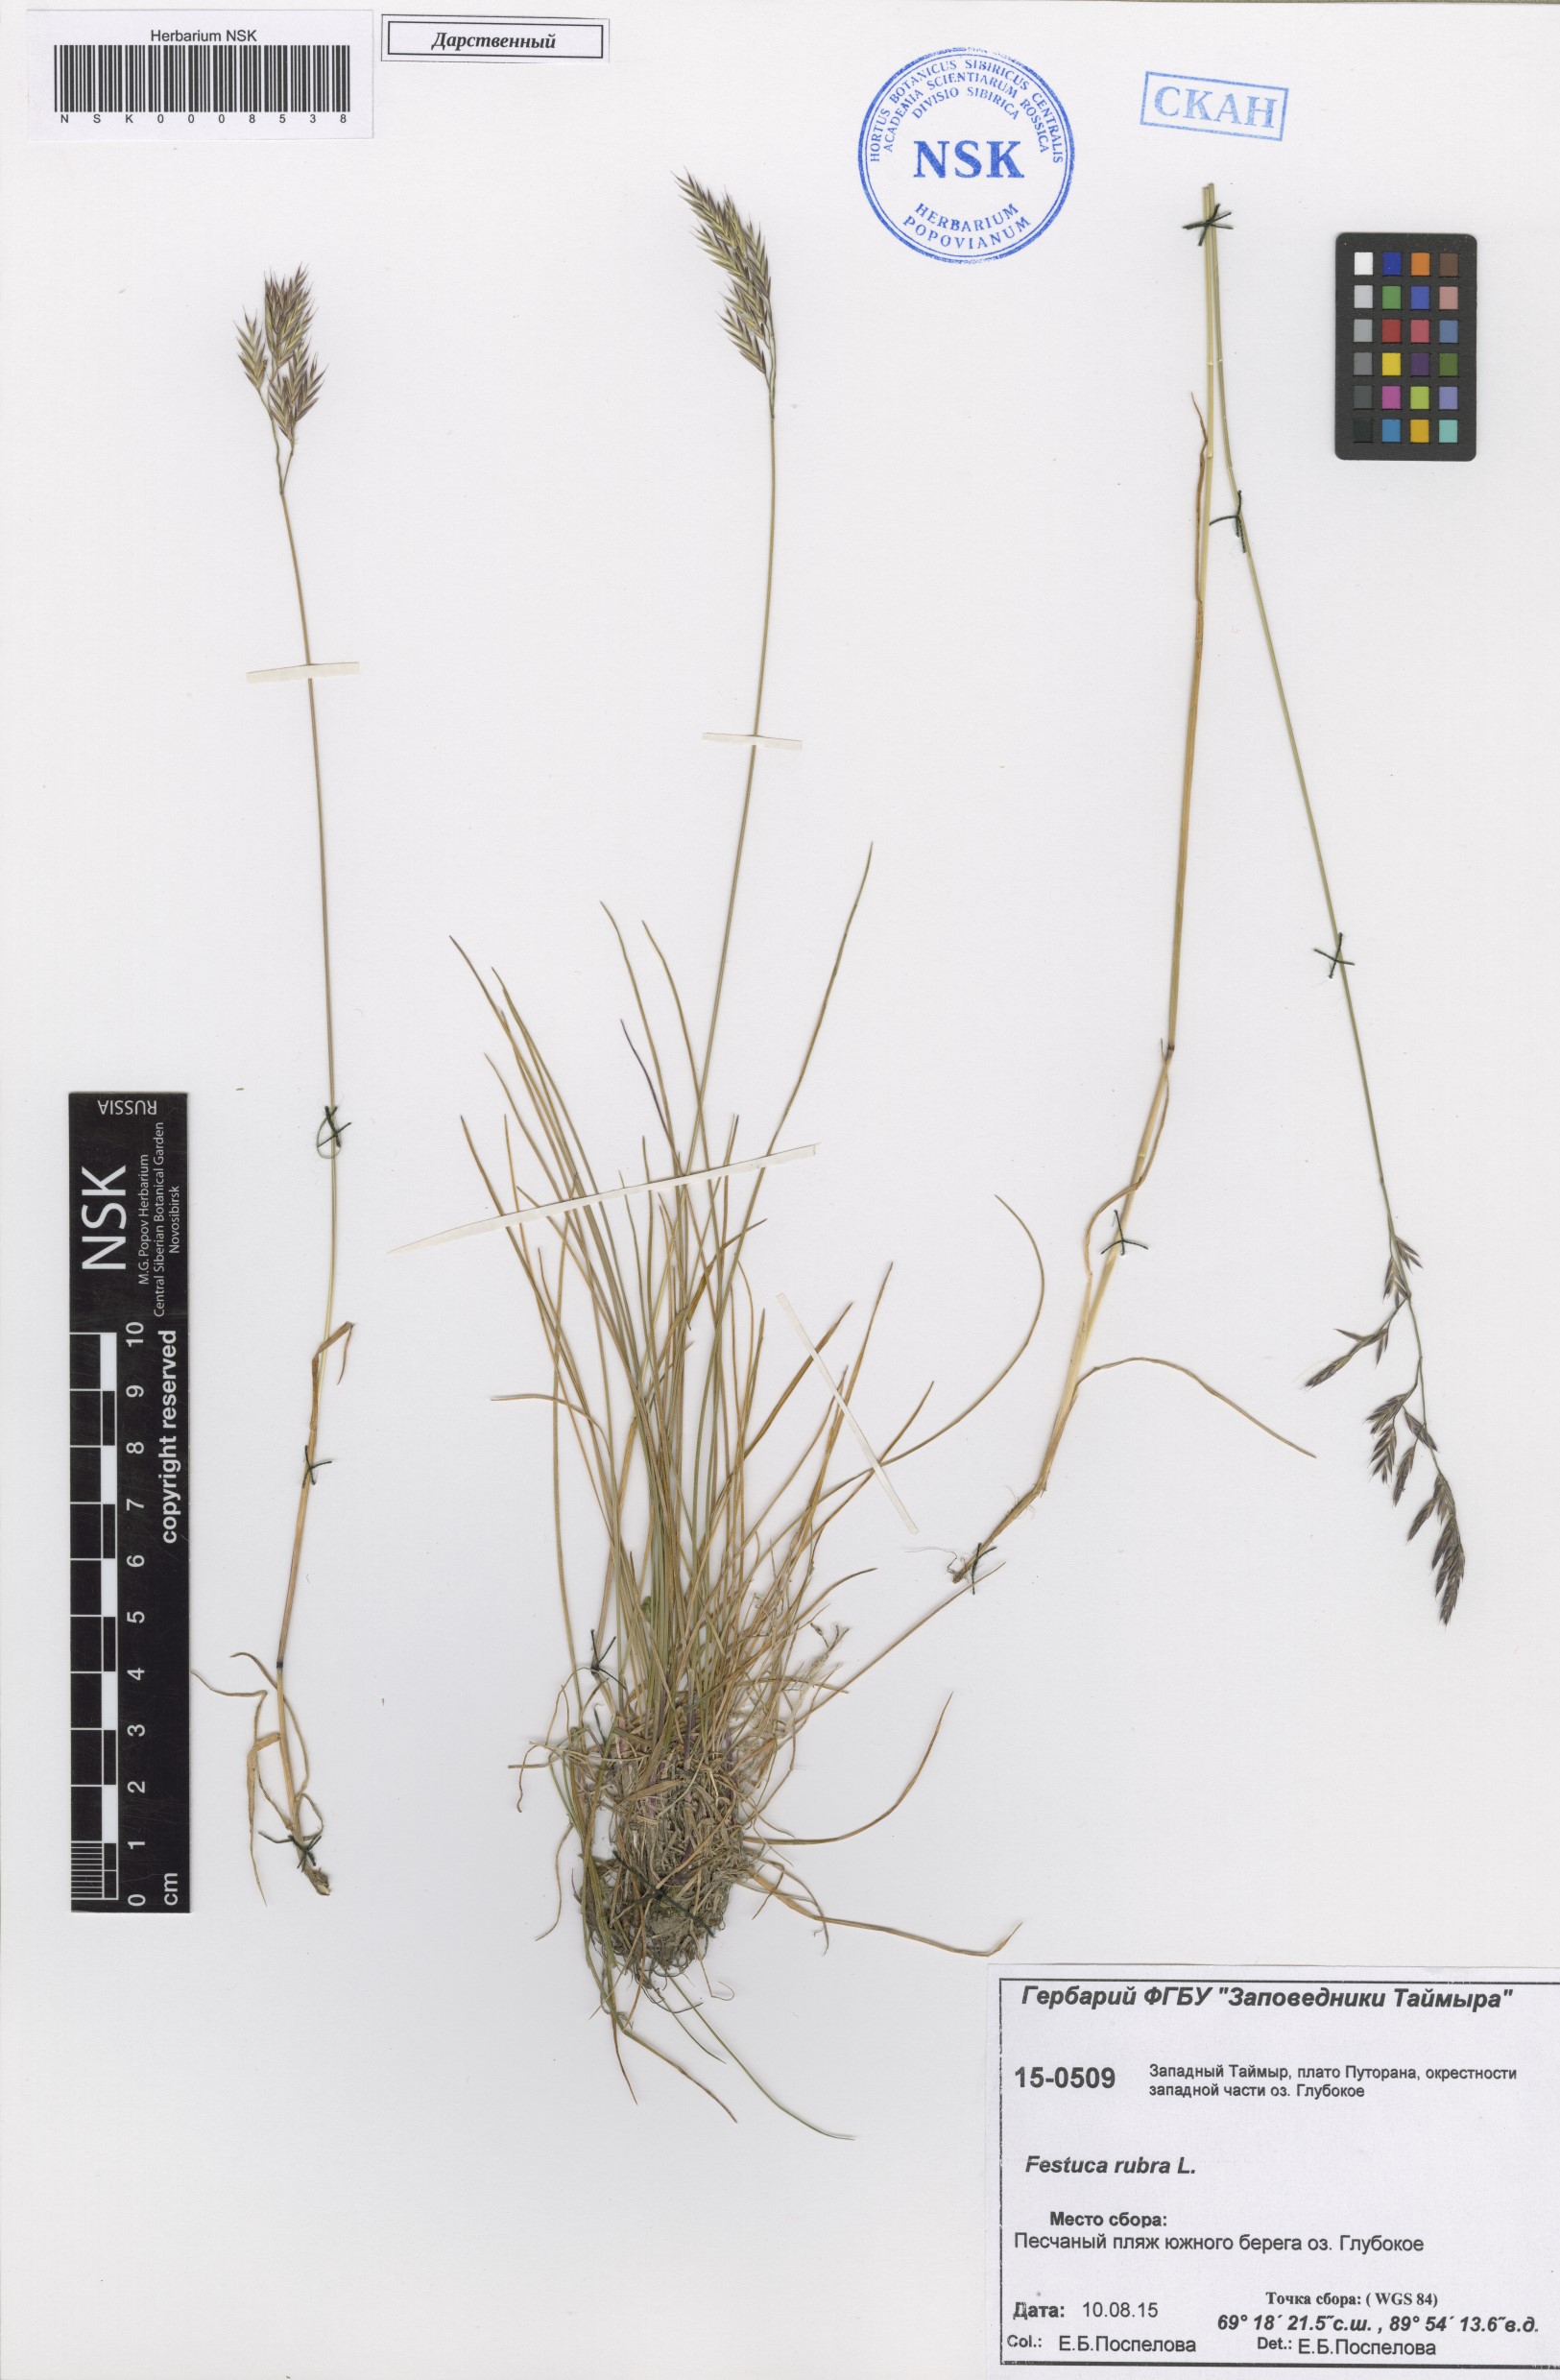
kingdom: Plantae
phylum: Tracheophyta
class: Liliopsida
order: Poales
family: Poaceae
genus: Festuca
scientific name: Festuca rubra
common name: Red fescue
